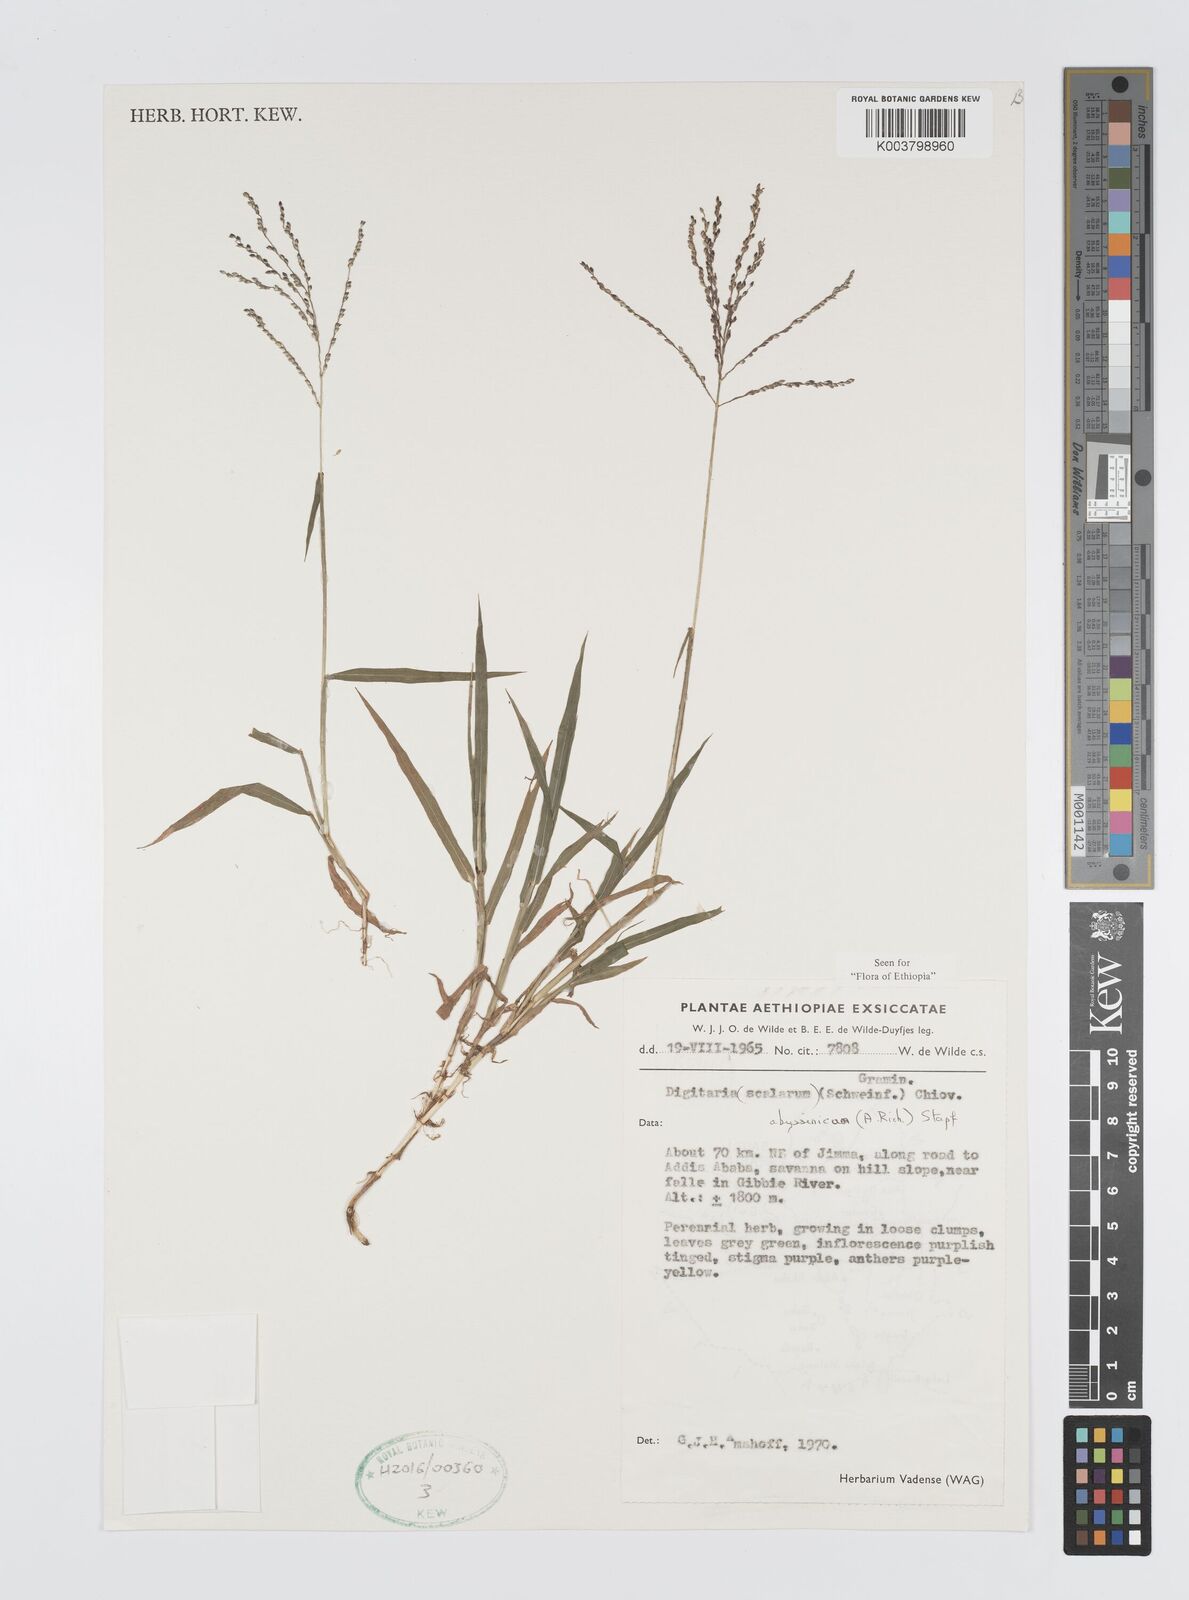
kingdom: Plantae
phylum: Tracheophyta
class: Liliopsida
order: Poales
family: Poaceae
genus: Digitaria
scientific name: Digitaria abyssinica
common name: African couchgrass
